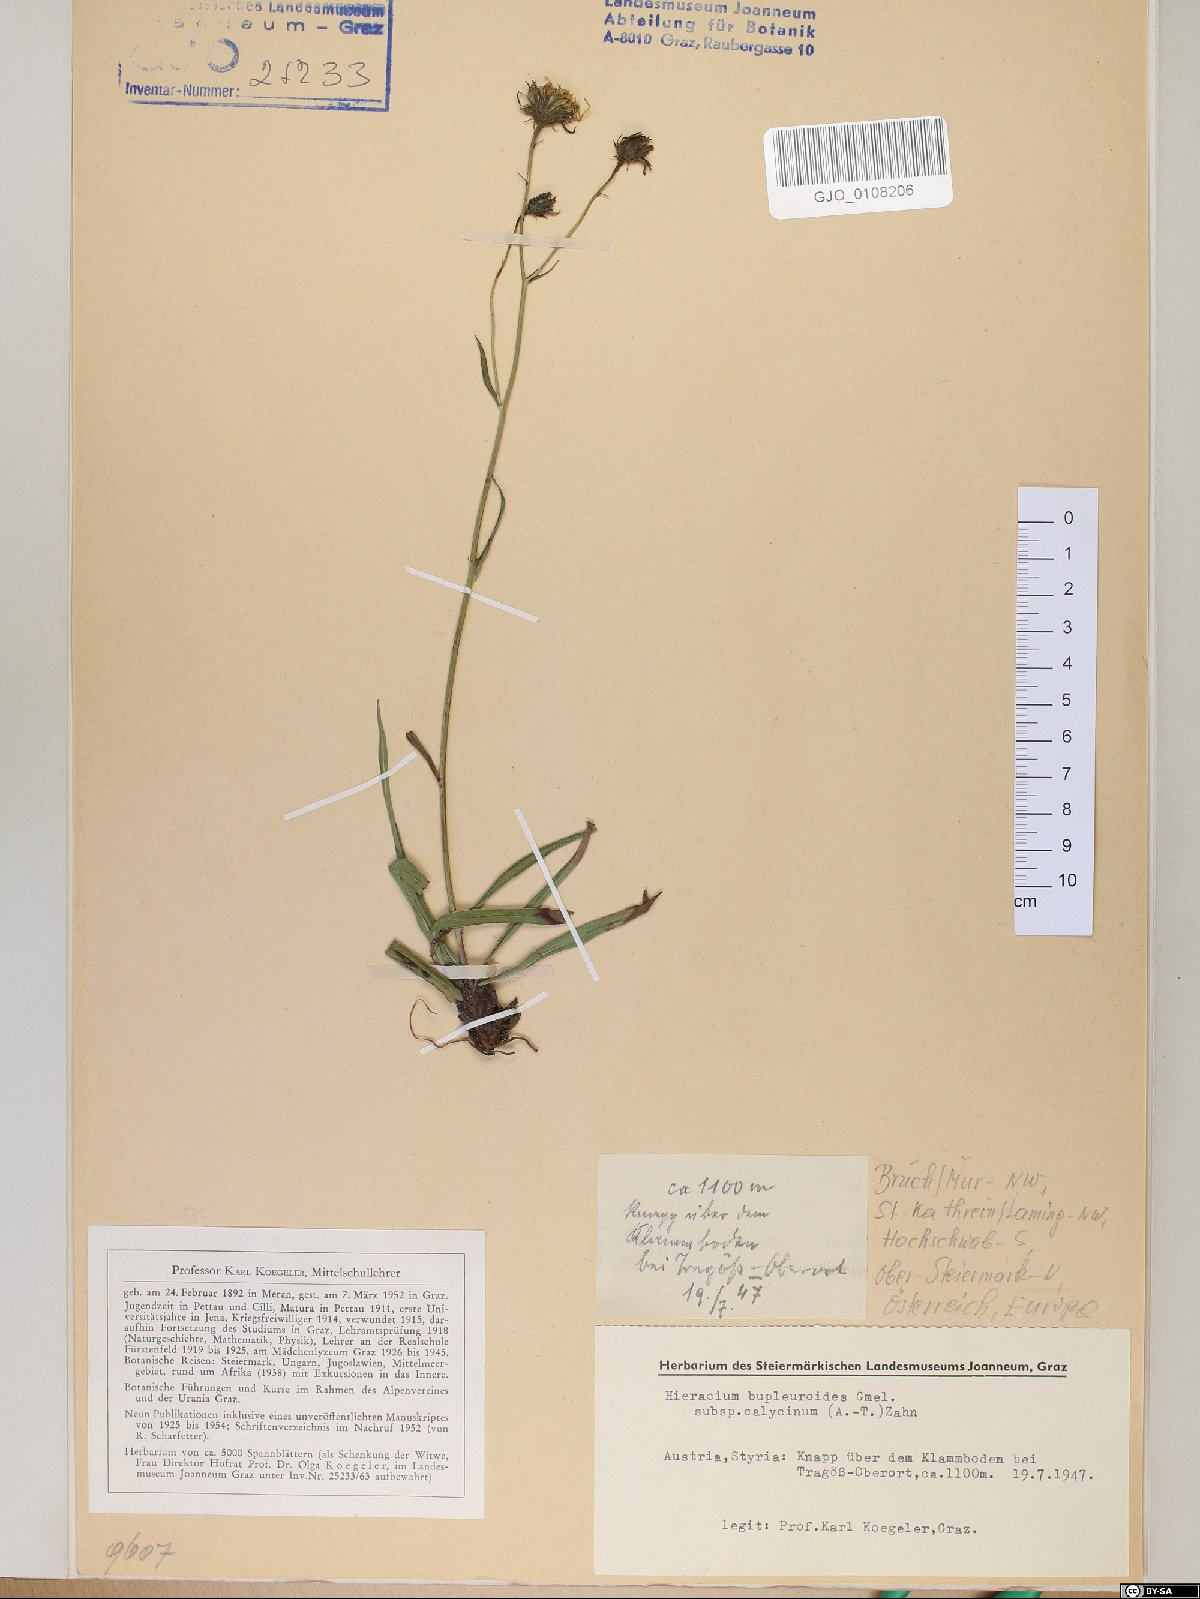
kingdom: Plantae
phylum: Tracheophyta
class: Magnoliopsida
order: Asterales
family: Asteraceae
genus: Hieracium
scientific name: Hieracium bupleuroides
